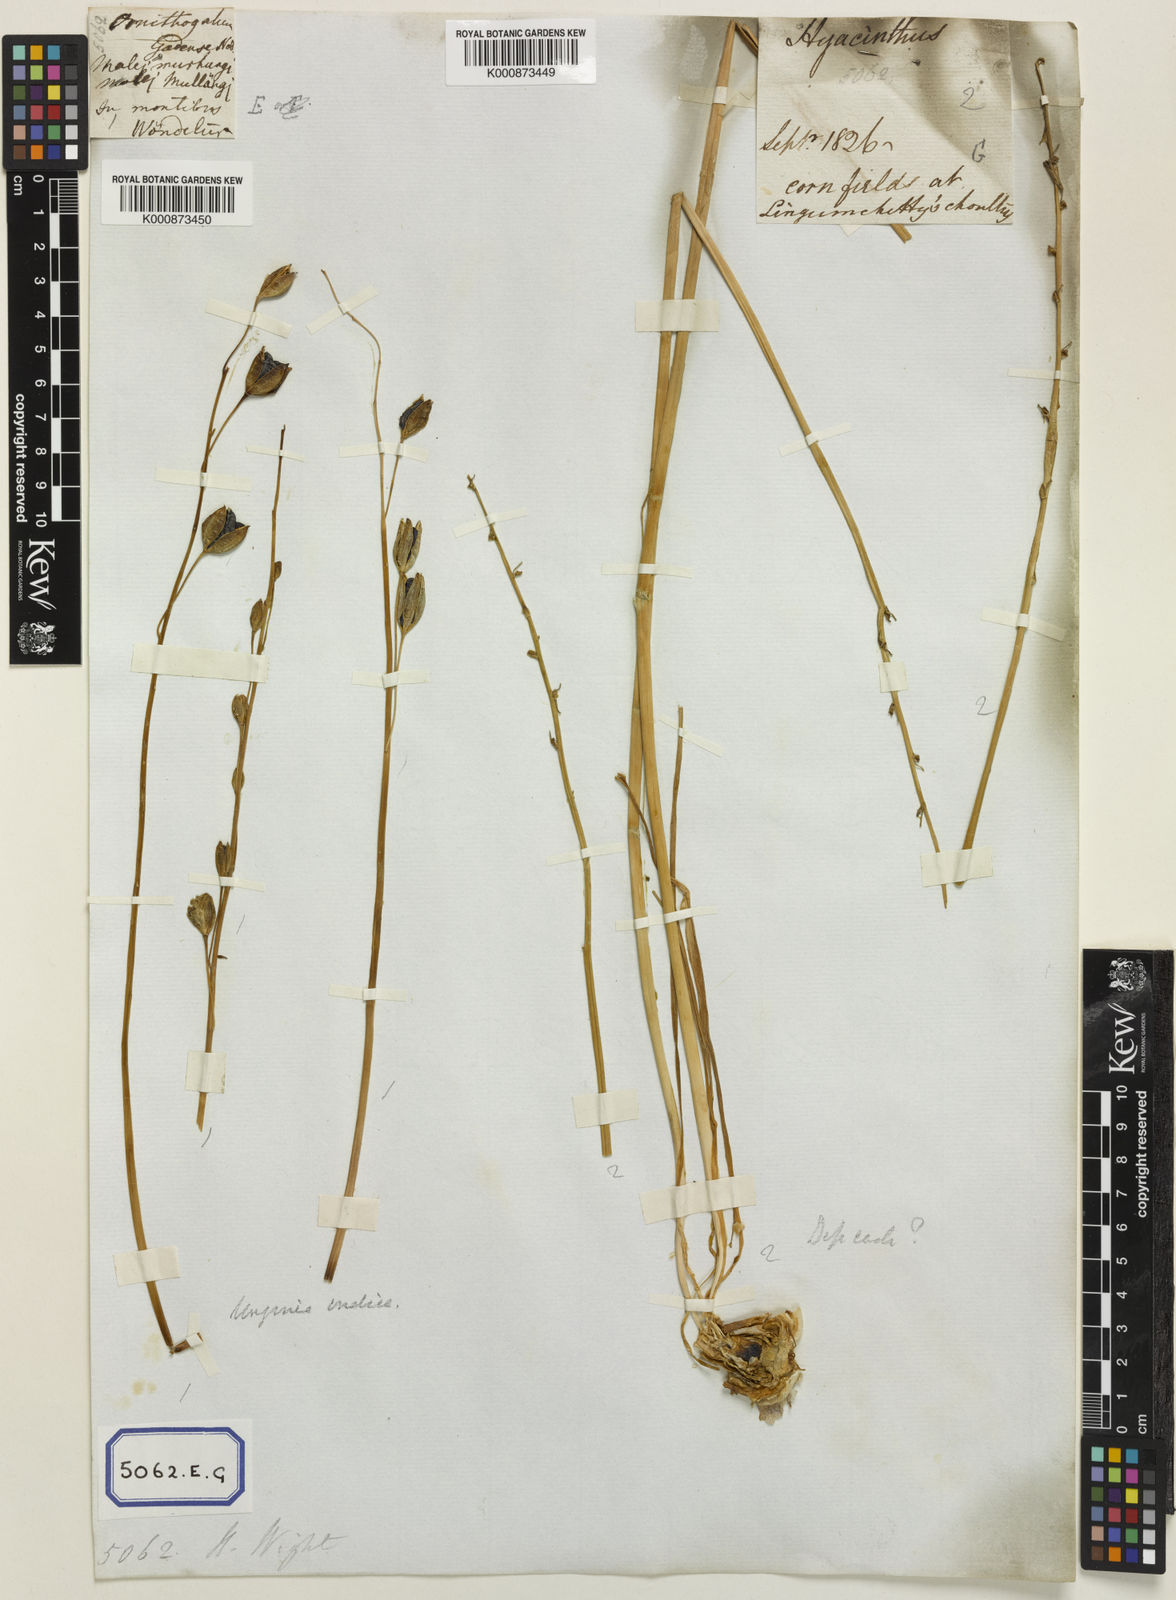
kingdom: Plantae
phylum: Tracheophyta
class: Liliopsida
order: Asparagales
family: Asparagaceae
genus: Drimia
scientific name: Drimia indica
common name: Indian-squill
